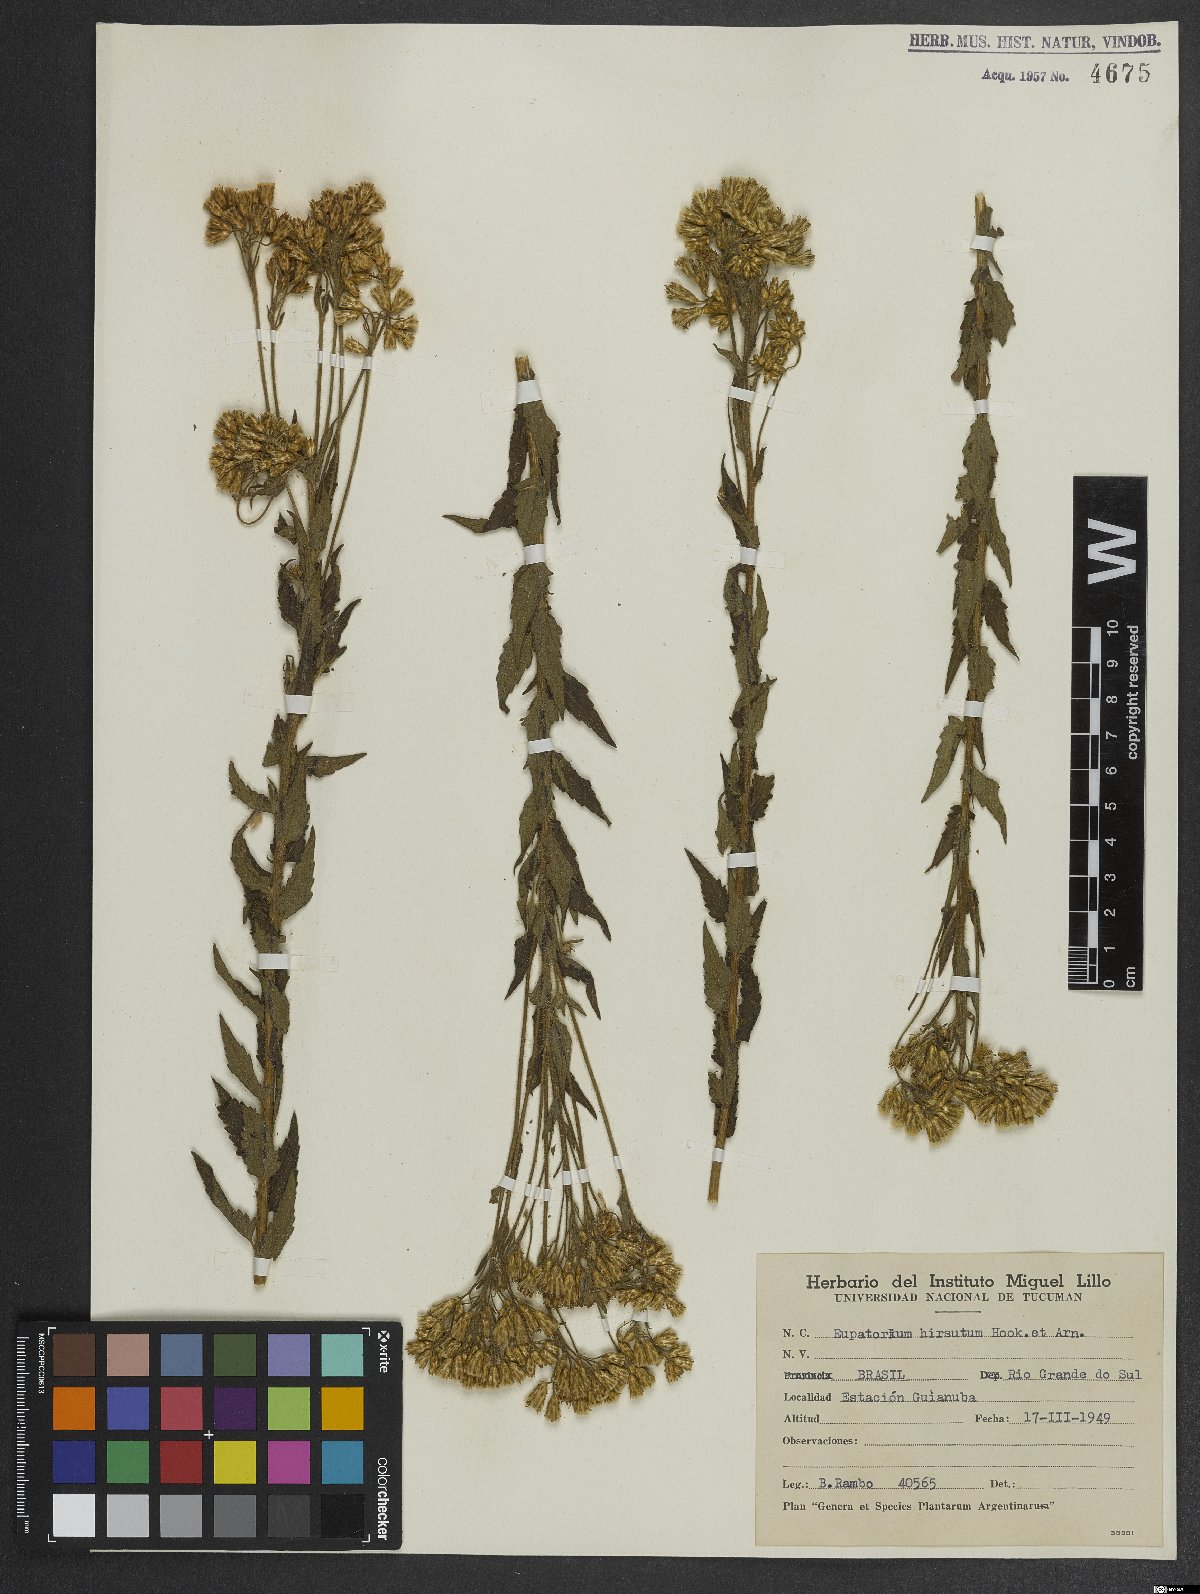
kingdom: Plantae
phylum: Tracheophyta
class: Magnoliopsida
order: Asterales
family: Asteraceae
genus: Campuloclinium
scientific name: Campuloclinium hirsutum
